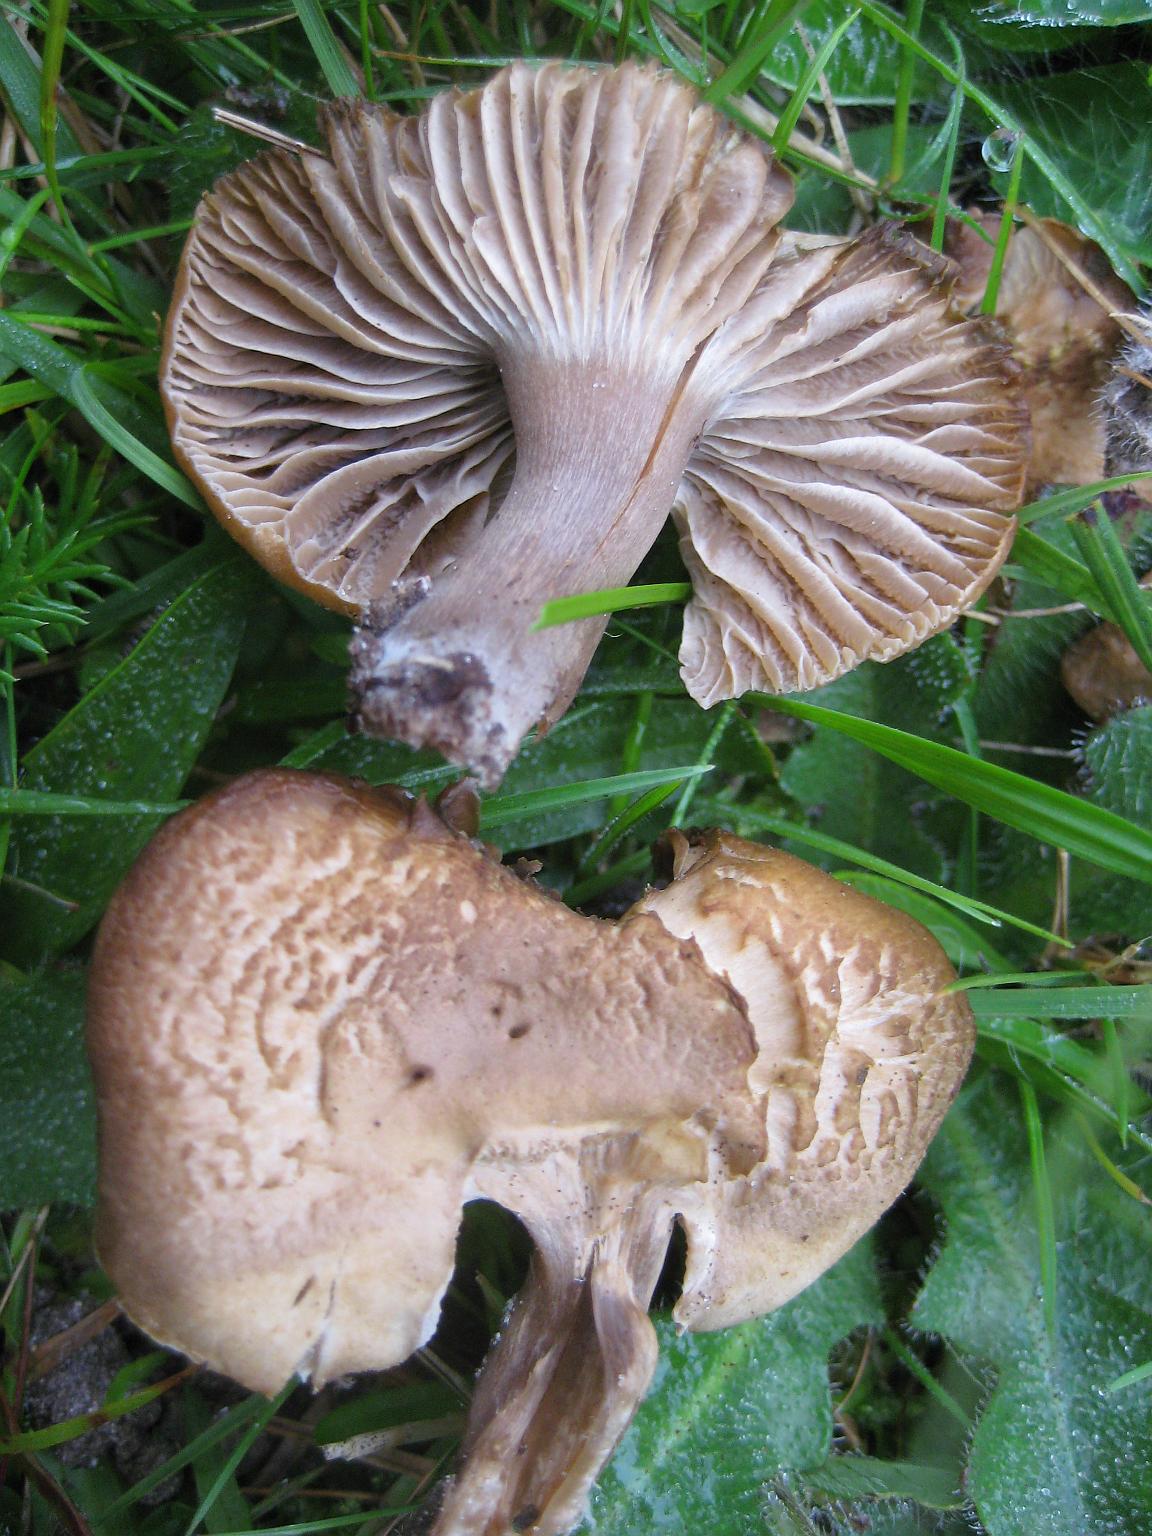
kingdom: Fungi
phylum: Basidiomycota
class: Agaricomycetes
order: Agaricales
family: Hygrophoraceae
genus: Cuphophyllus
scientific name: Cuphophyllus colemannianus
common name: rødbrun vokshat
